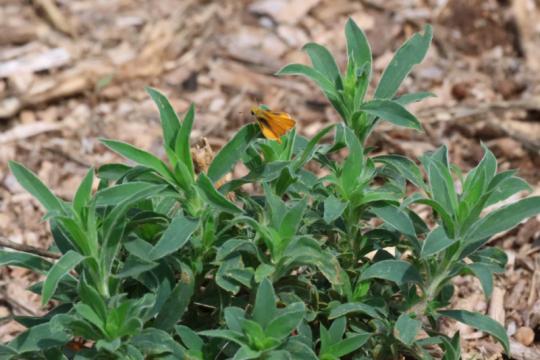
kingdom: Animalia
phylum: Arthropoda
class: Insecta
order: Lepidoptera
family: Hesperiidae
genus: Copaeodes
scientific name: Copaeodes aurantiaca
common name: Orange Skipperling
